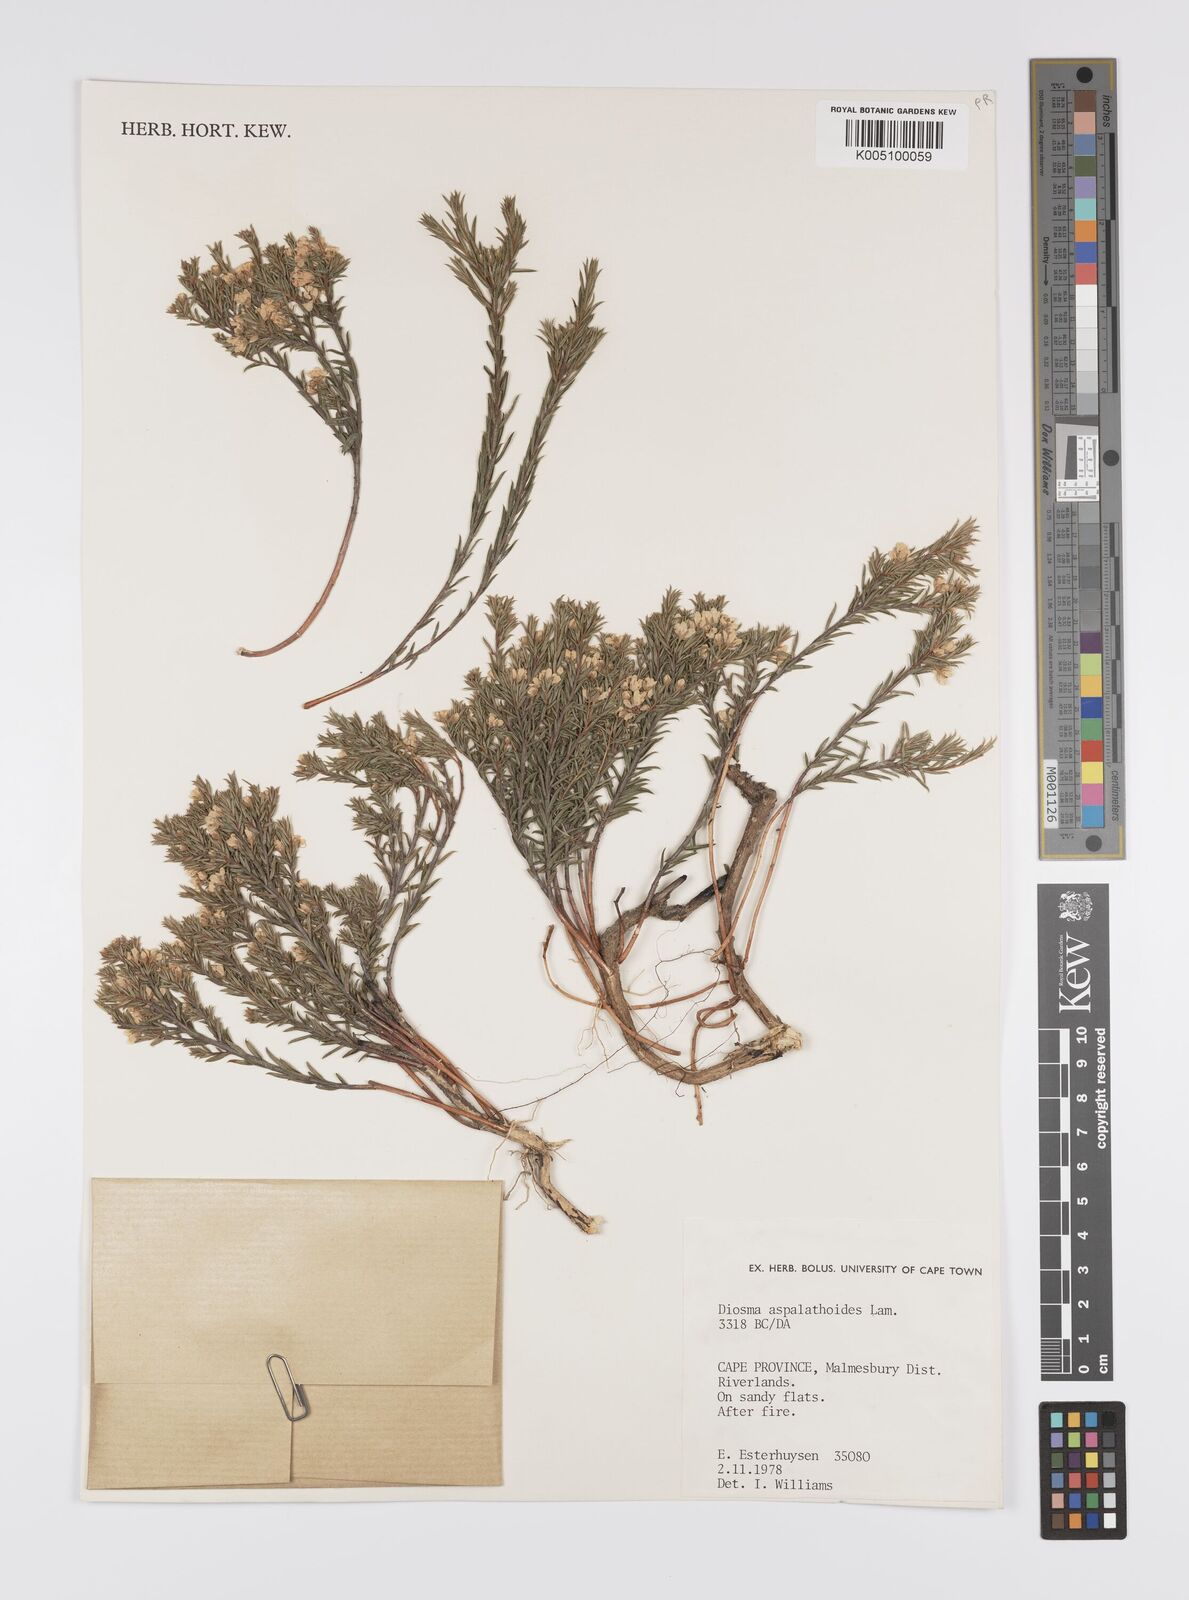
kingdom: Plantae
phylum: Tracheophyta
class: Magnoliopsida
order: Sapindales
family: Rutaceae
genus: Diosma
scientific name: Diosma aspalathoides
